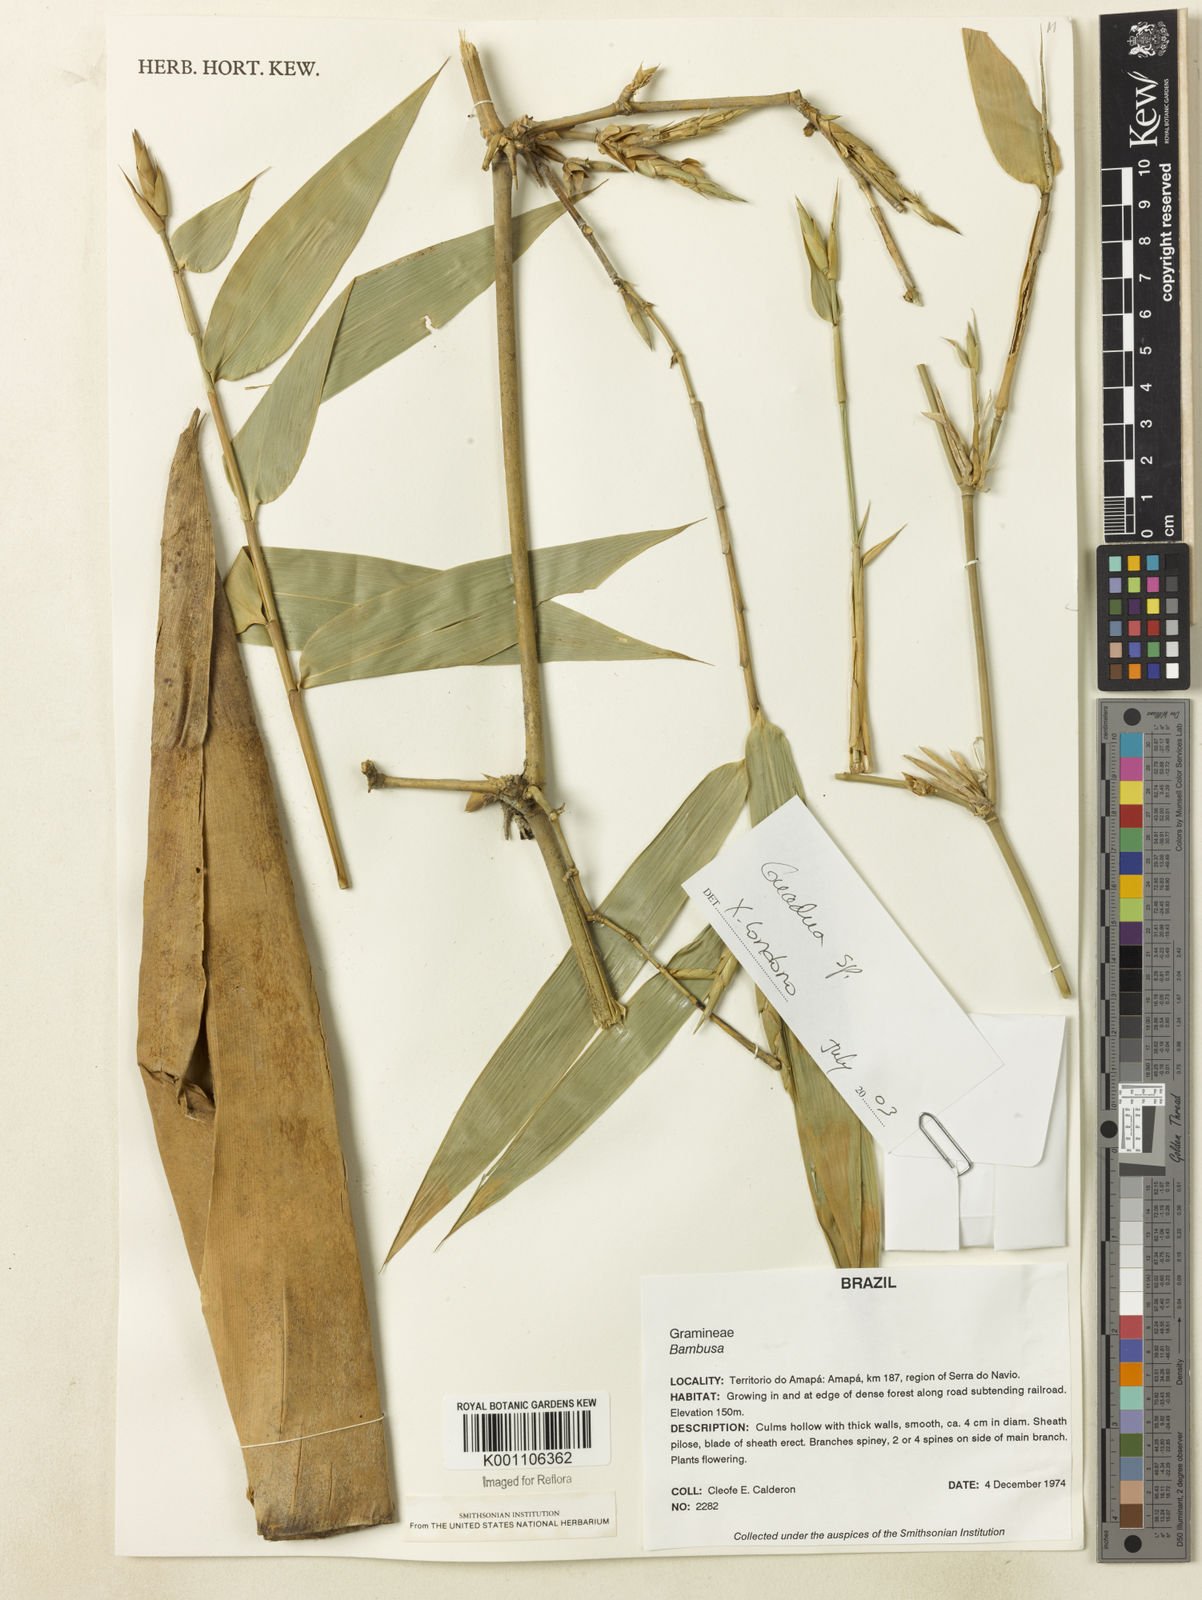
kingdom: Plantae
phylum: Tracheophyta
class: Liliopsida
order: Poales
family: Poaceae
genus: Guadua
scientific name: Guadua
